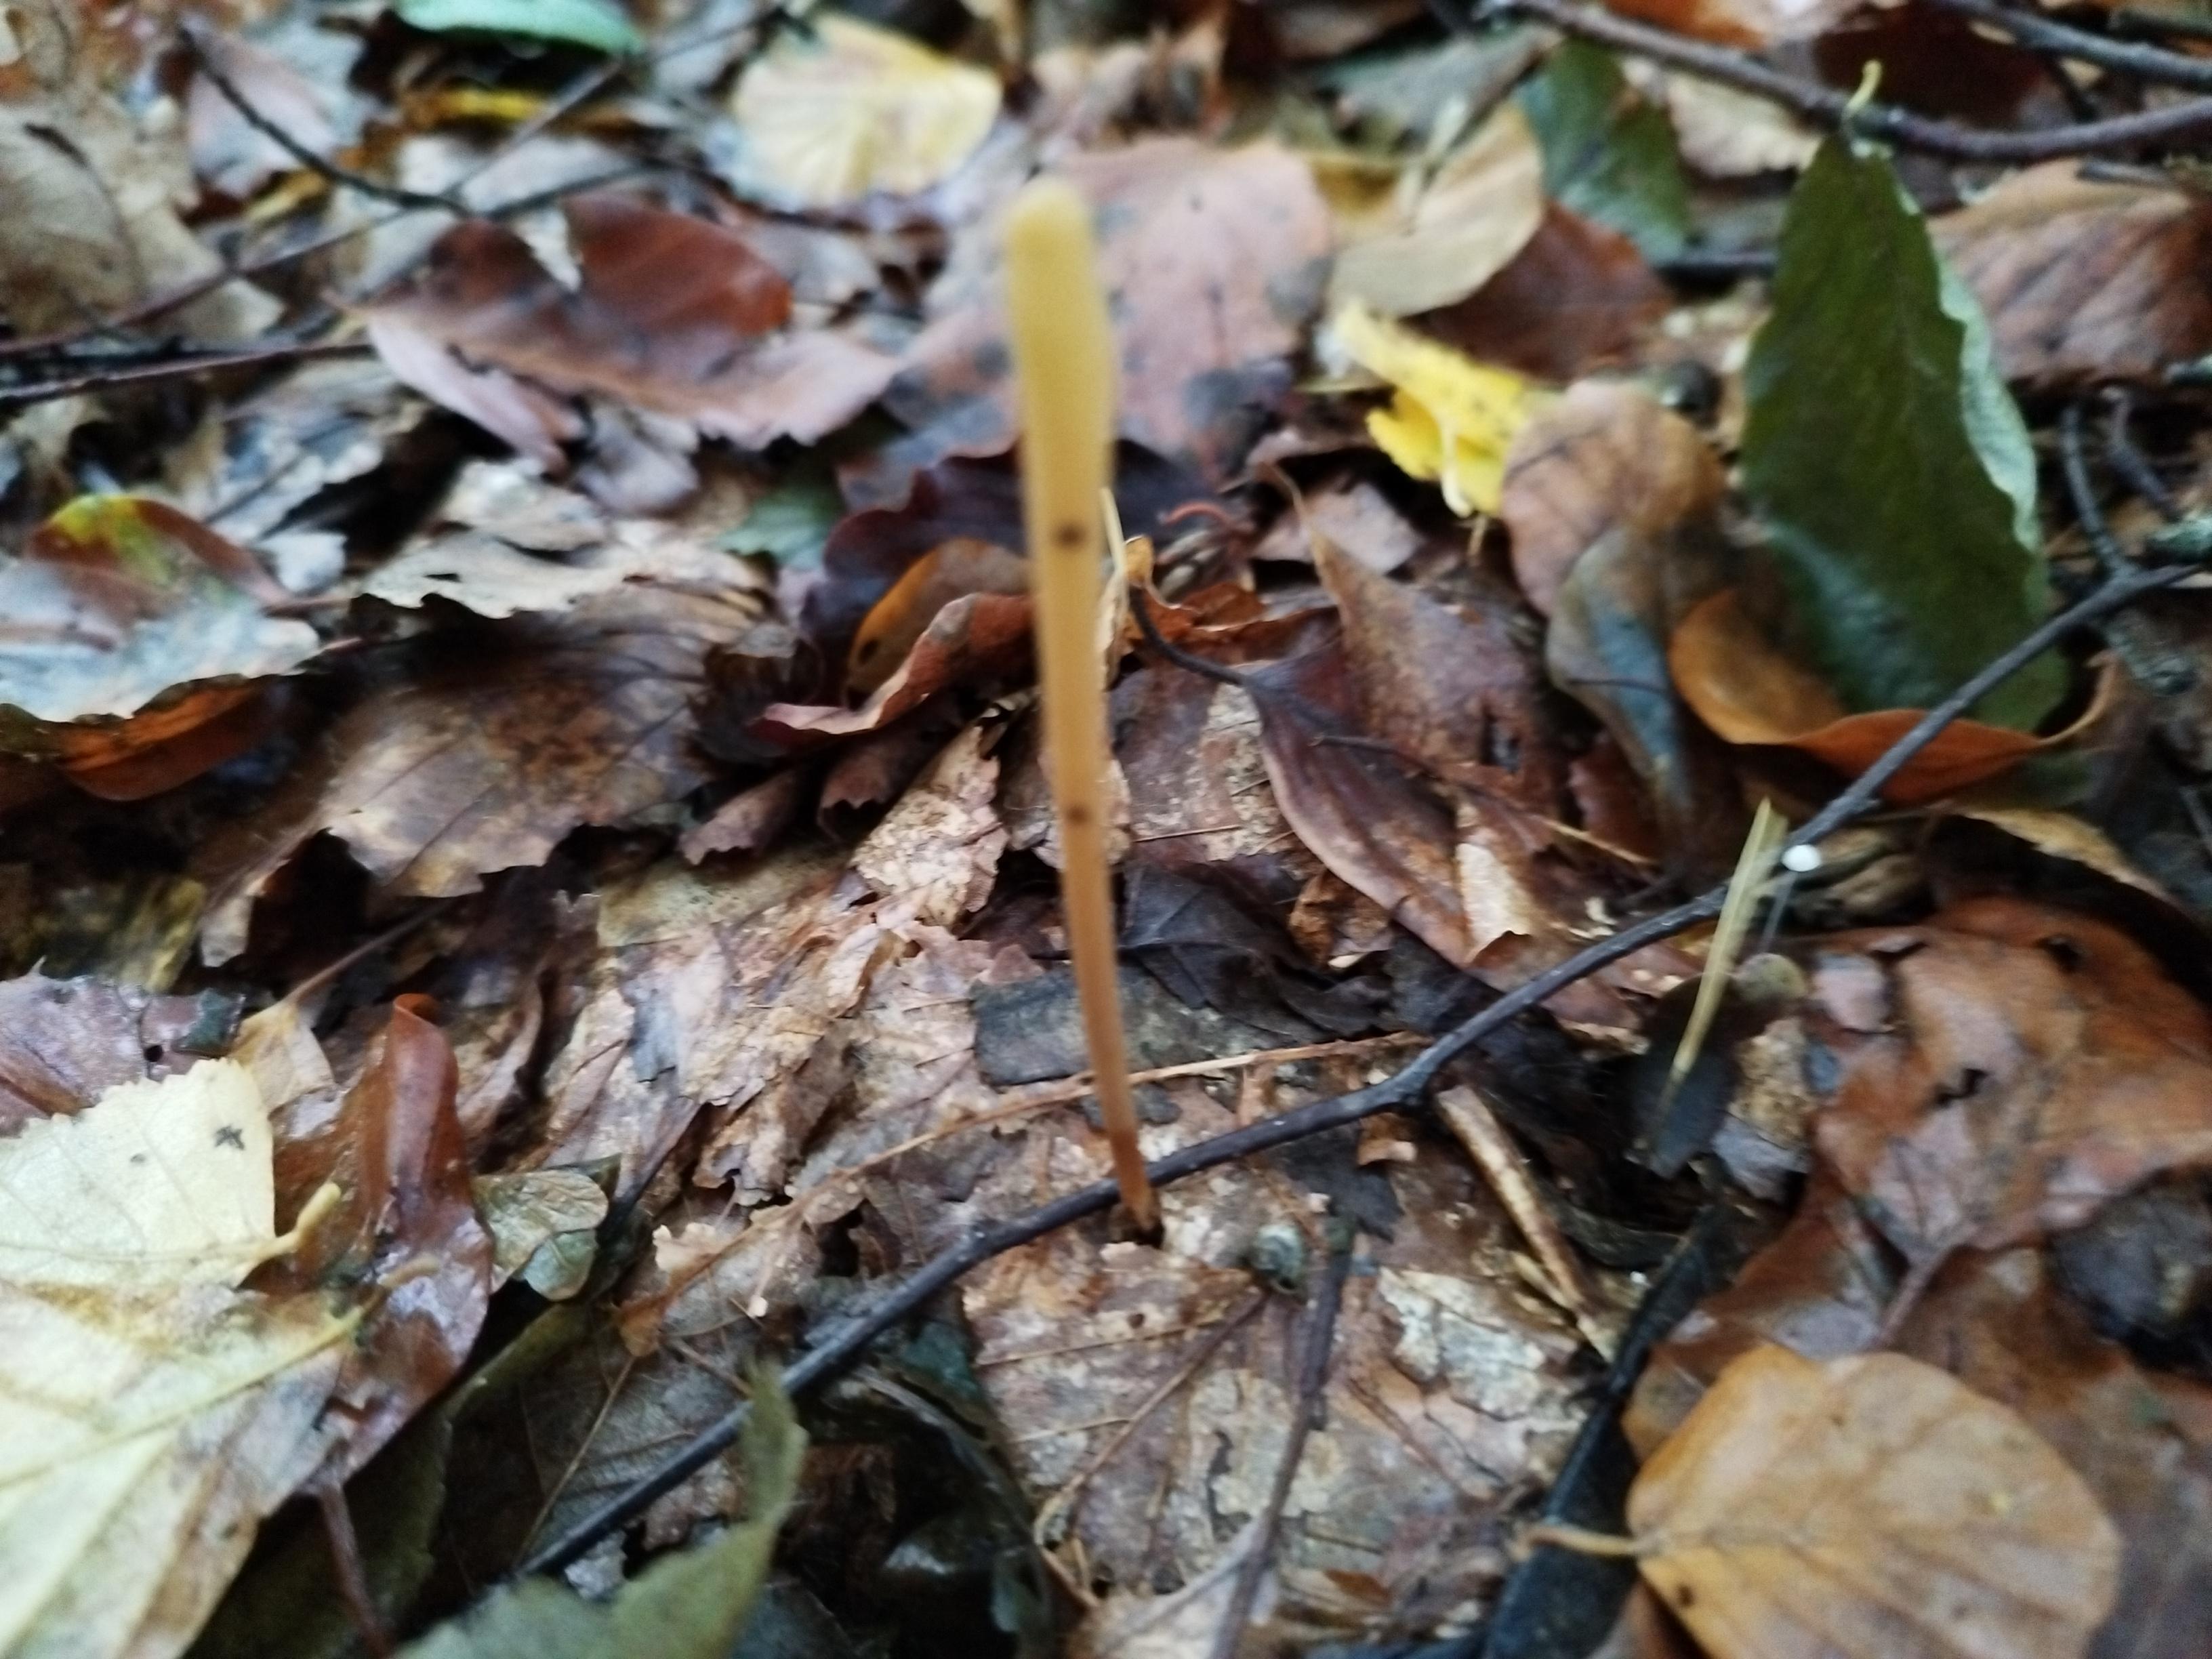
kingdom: Fungi
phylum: Basidiomycota
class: Agaricomycetes
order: Agaricales
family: Typhulaceae
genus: Typhula
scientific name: Typhula fistulosa
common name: pibet rørkølle
